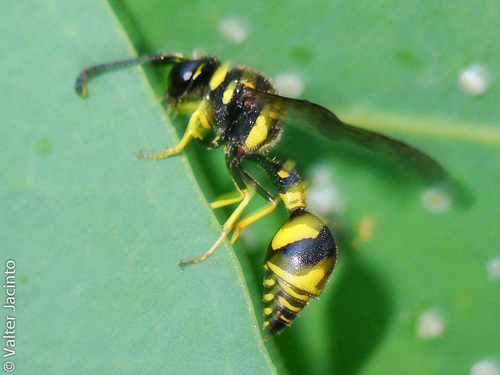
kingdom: Animalia
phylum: Arthropoda
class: Insecta
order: Hymenoptera
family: Vespidae
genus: Eumenes
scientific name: Eumenes
